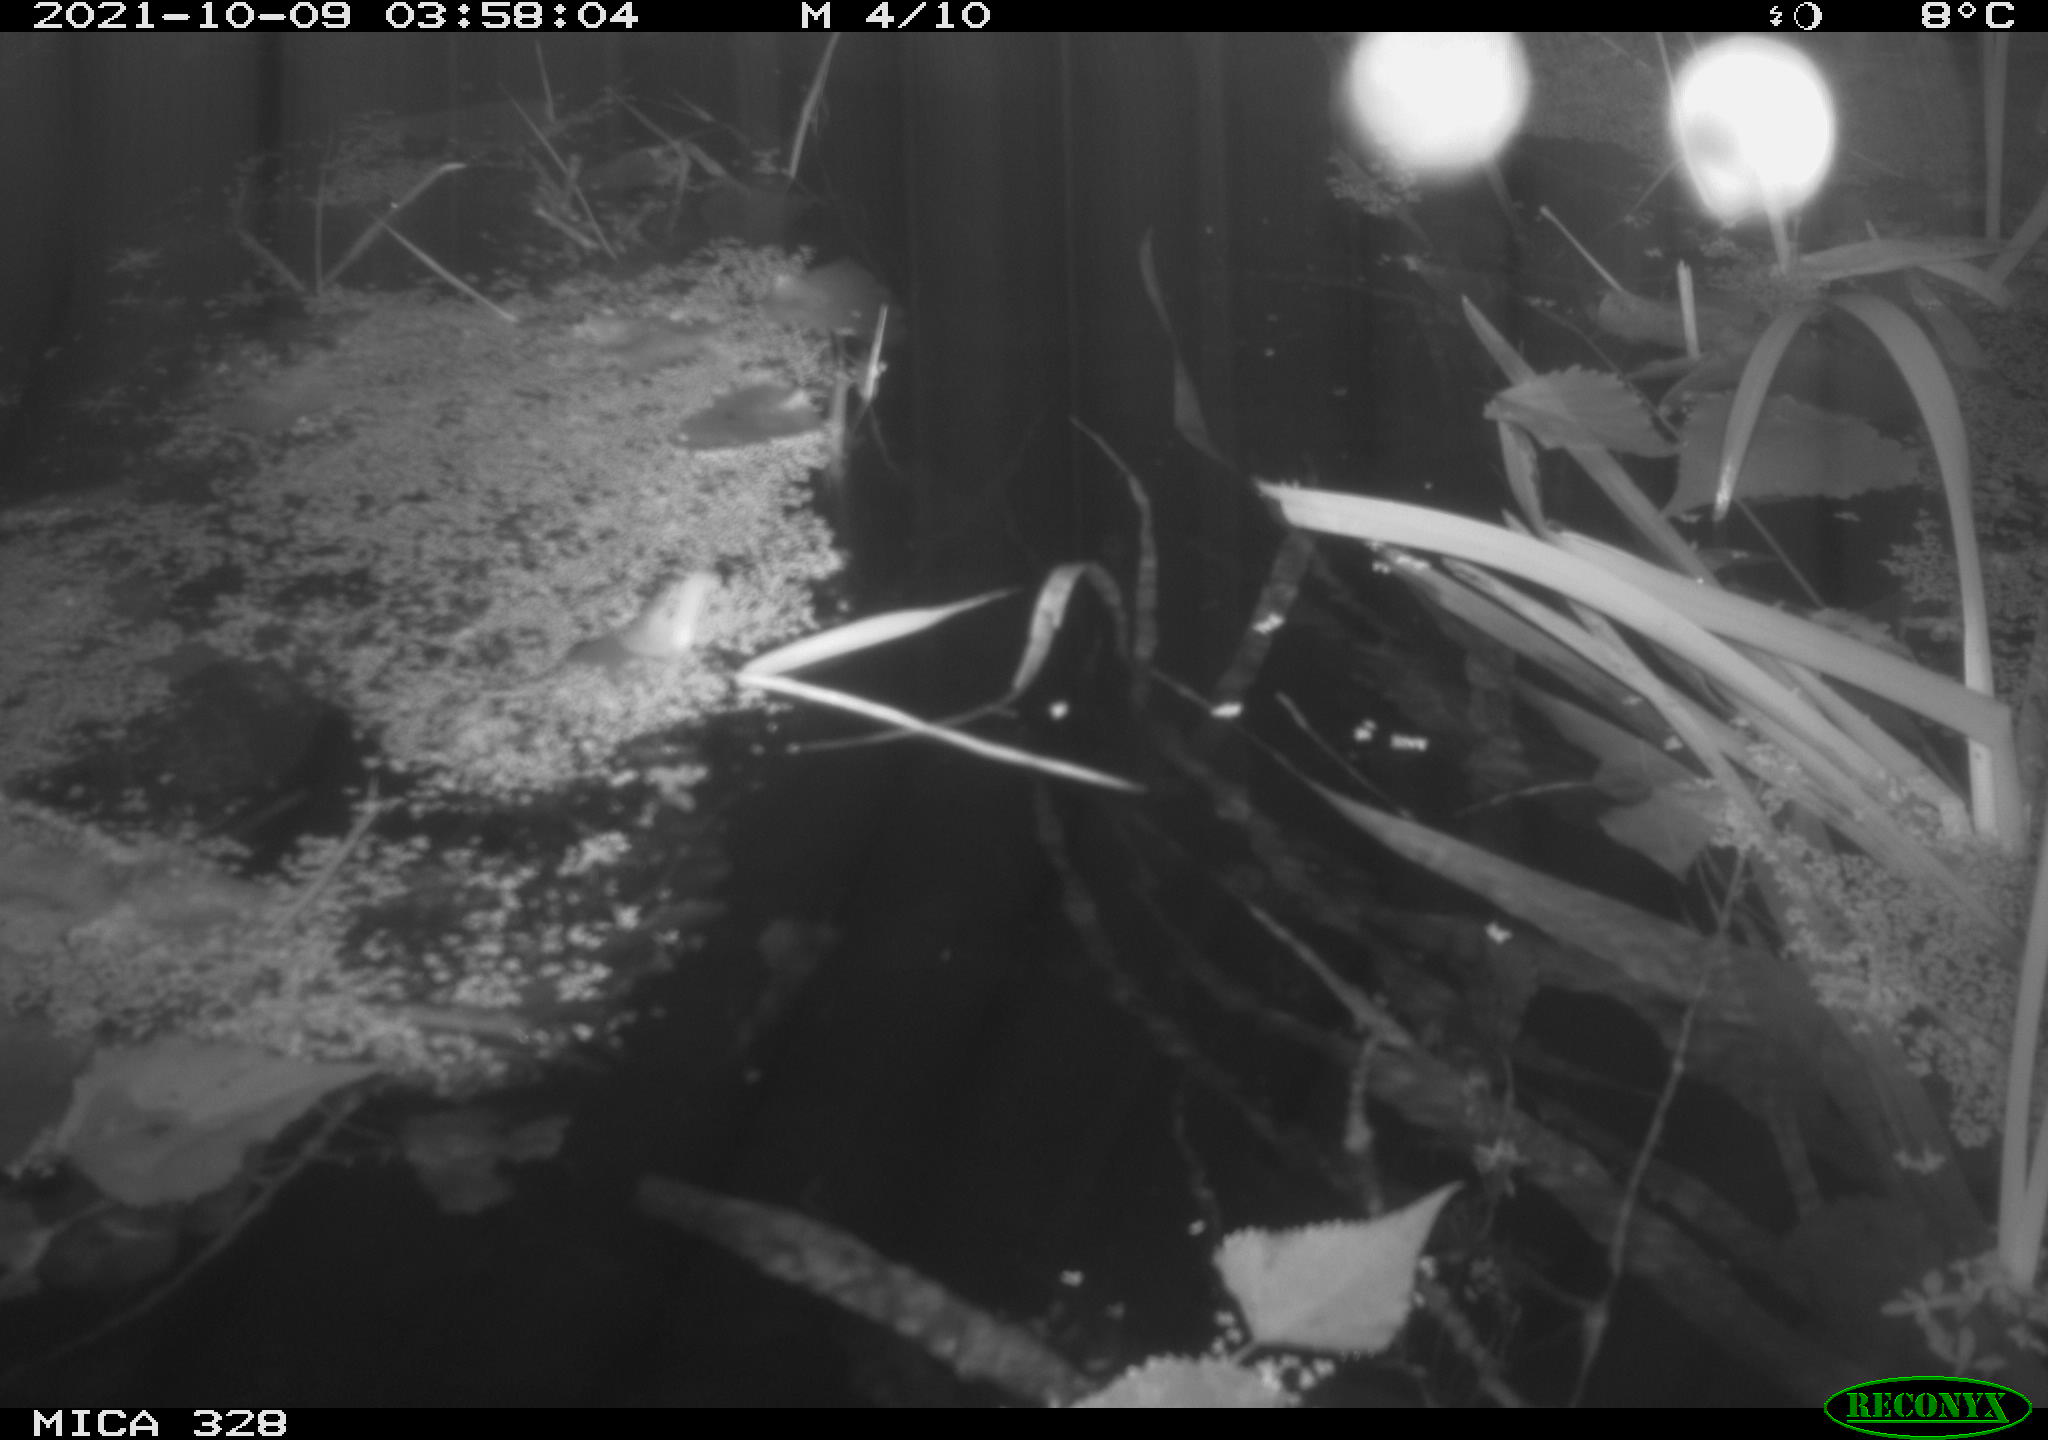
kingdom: Animalia
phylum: Chordata
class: Mammalia
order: Rodentia
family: Cricetidae
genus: Ondatra
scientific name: Ondatra zibethicus
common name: Muskrat
